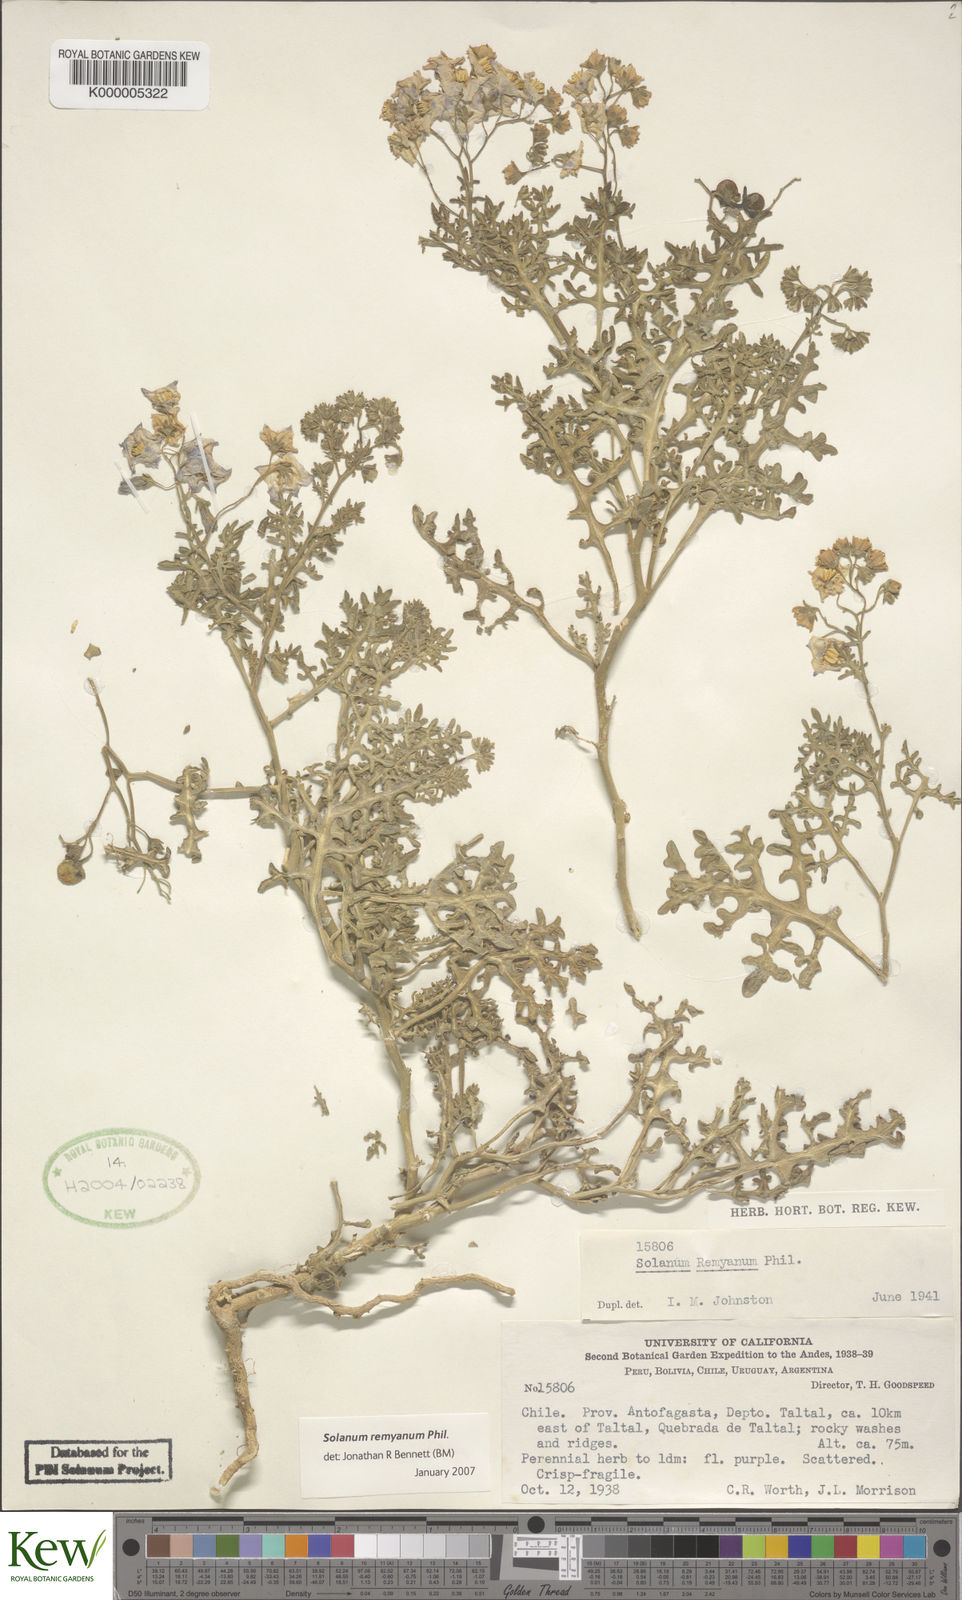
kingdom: Plantae
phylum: Tracheophyta
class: Magnoliopsida
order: Solanales
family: Solanaceae
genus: Solanum
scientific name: Solanum remyanum
